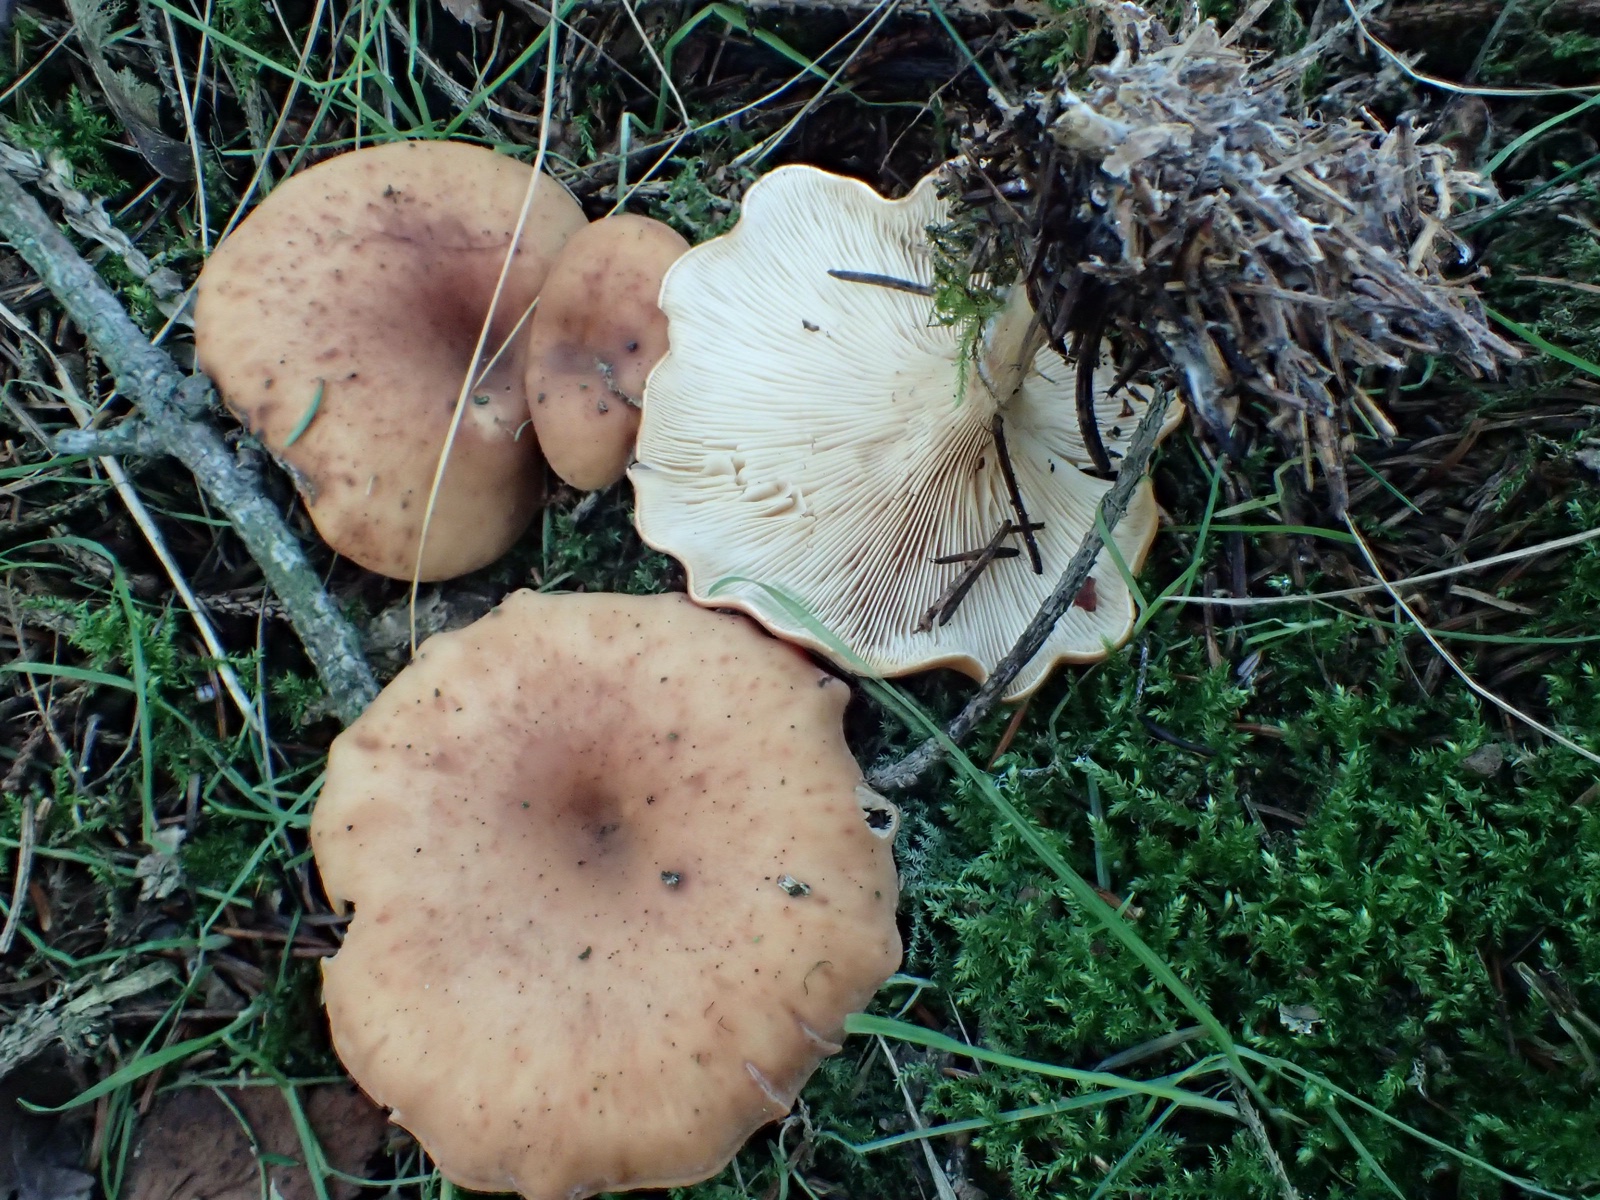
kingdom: Fungi
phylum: Basidiomycota
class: Agaricomycetes
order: Agaricales
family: Tricholomataceae
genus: Paralepista
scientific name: Paralepista flaccida
